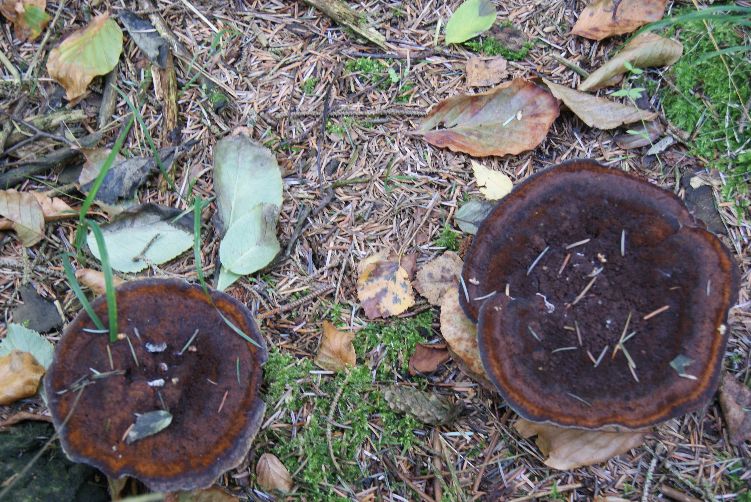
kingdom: Fungi
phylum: Basidiomycota
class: Agaricomycetes
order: Polyporales
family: Laetiporaceae
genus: Phaeolus
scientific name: Phaeolus schweinitzii
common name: brunporesvamp
